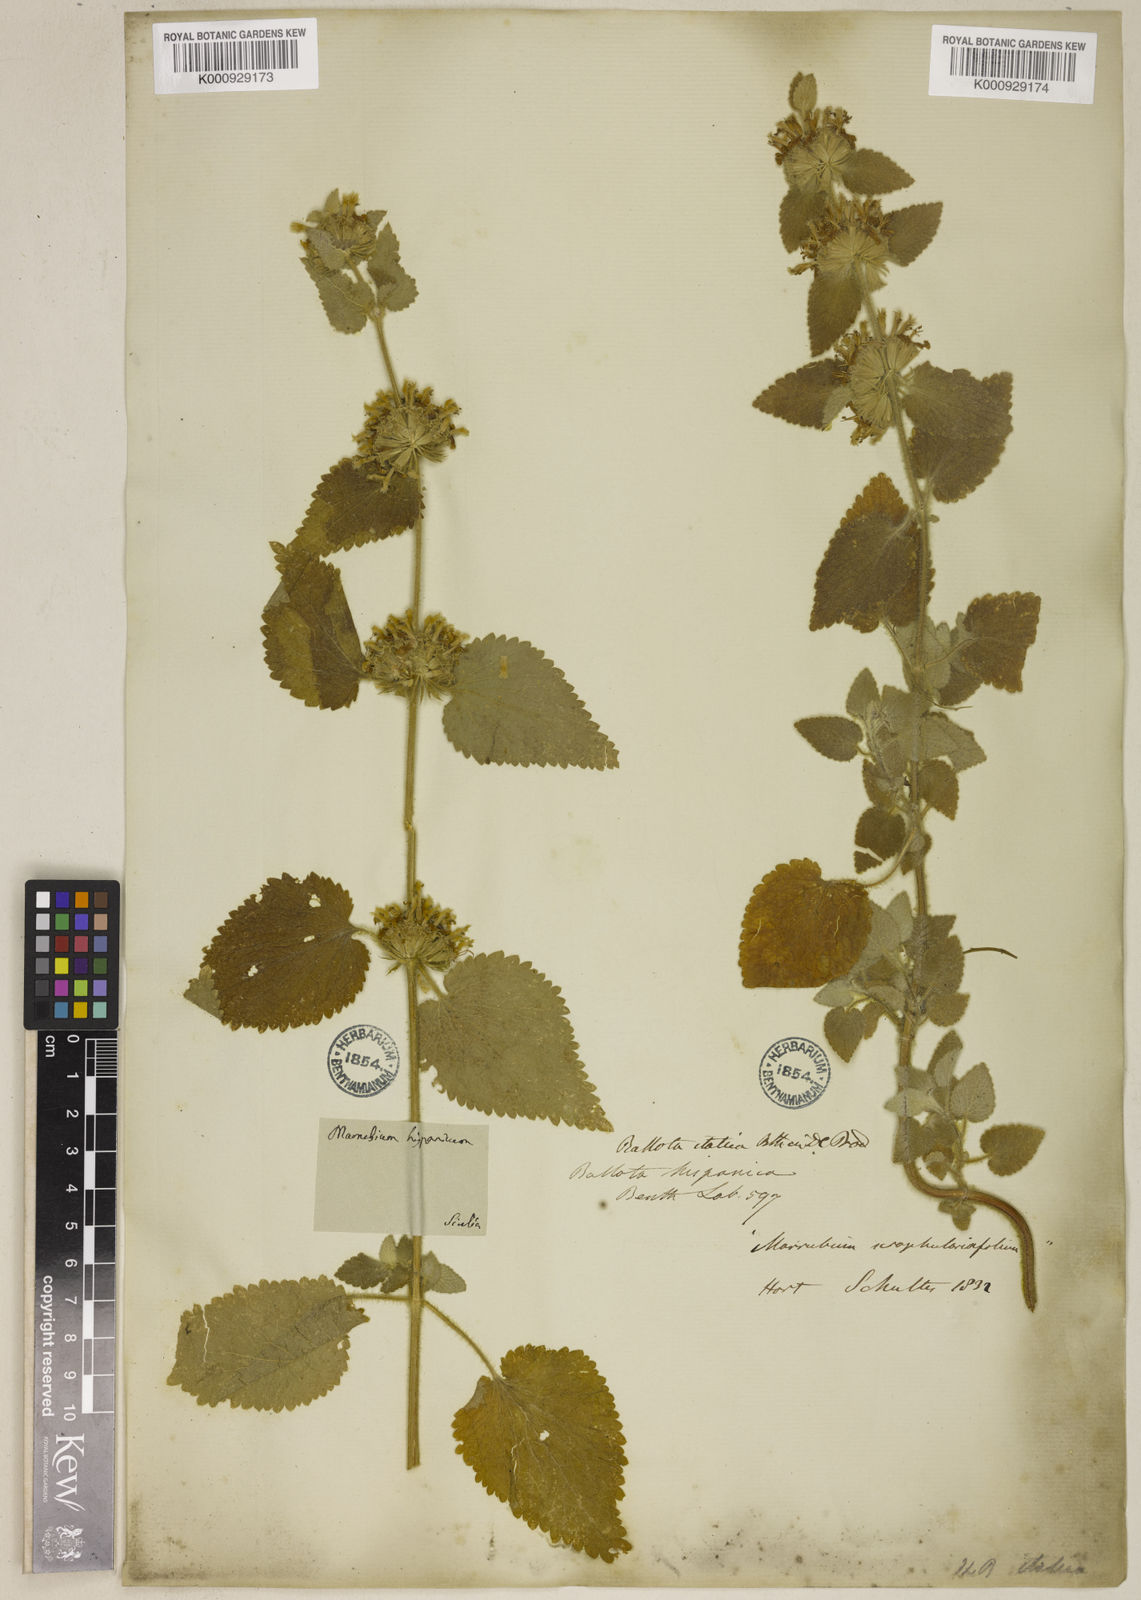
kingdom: Plantae
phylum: Tracheophyta
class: Magnoliopsida
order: Lamiales
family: Lamiaceae
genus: Pseudodictamnus
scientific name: Pseudodictamnus hispanicus
